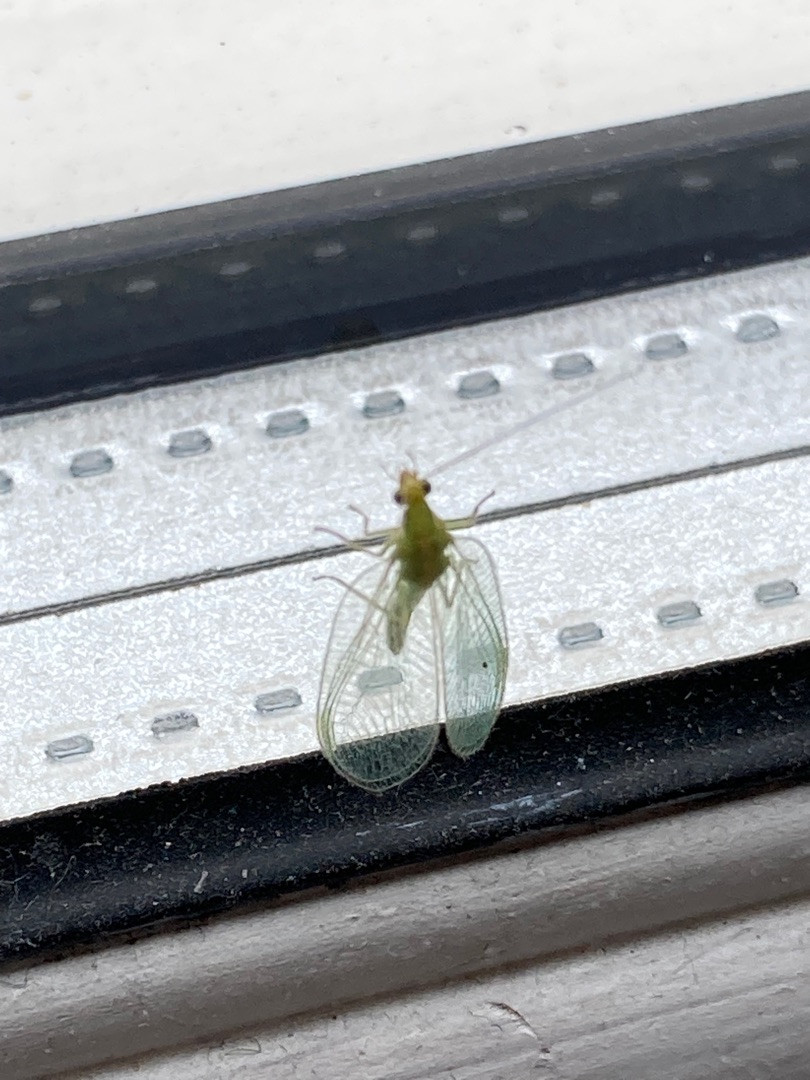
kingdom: Animalia
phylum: Arthropoda
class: Insecta
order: Neuroptera
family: Chrysopidae
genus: Chrysoperla
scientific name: Chrysoperla carnea
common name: Almindelig guldøje
